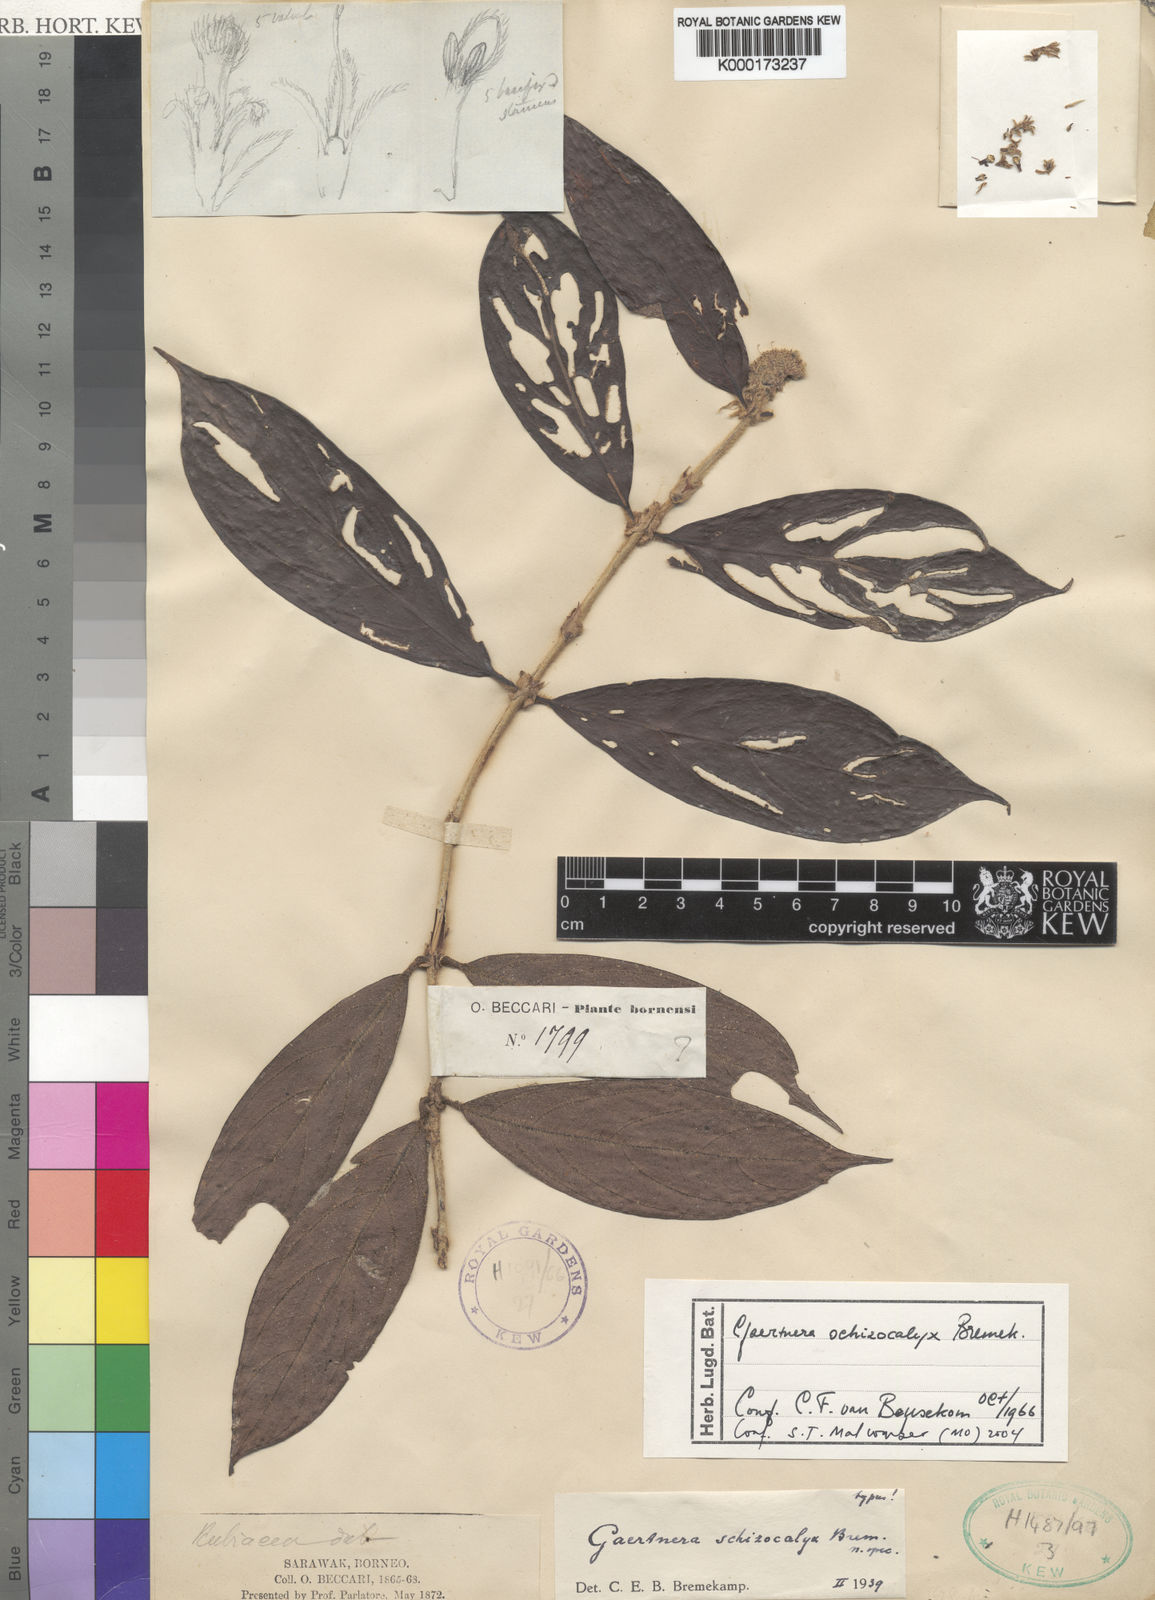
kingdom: Plantae
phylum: Tracheophyta
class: Magnoliopsida
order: Gentianales
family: Rubiaceae
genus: Gaertnera
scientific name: Gaertnera schizocalyx
